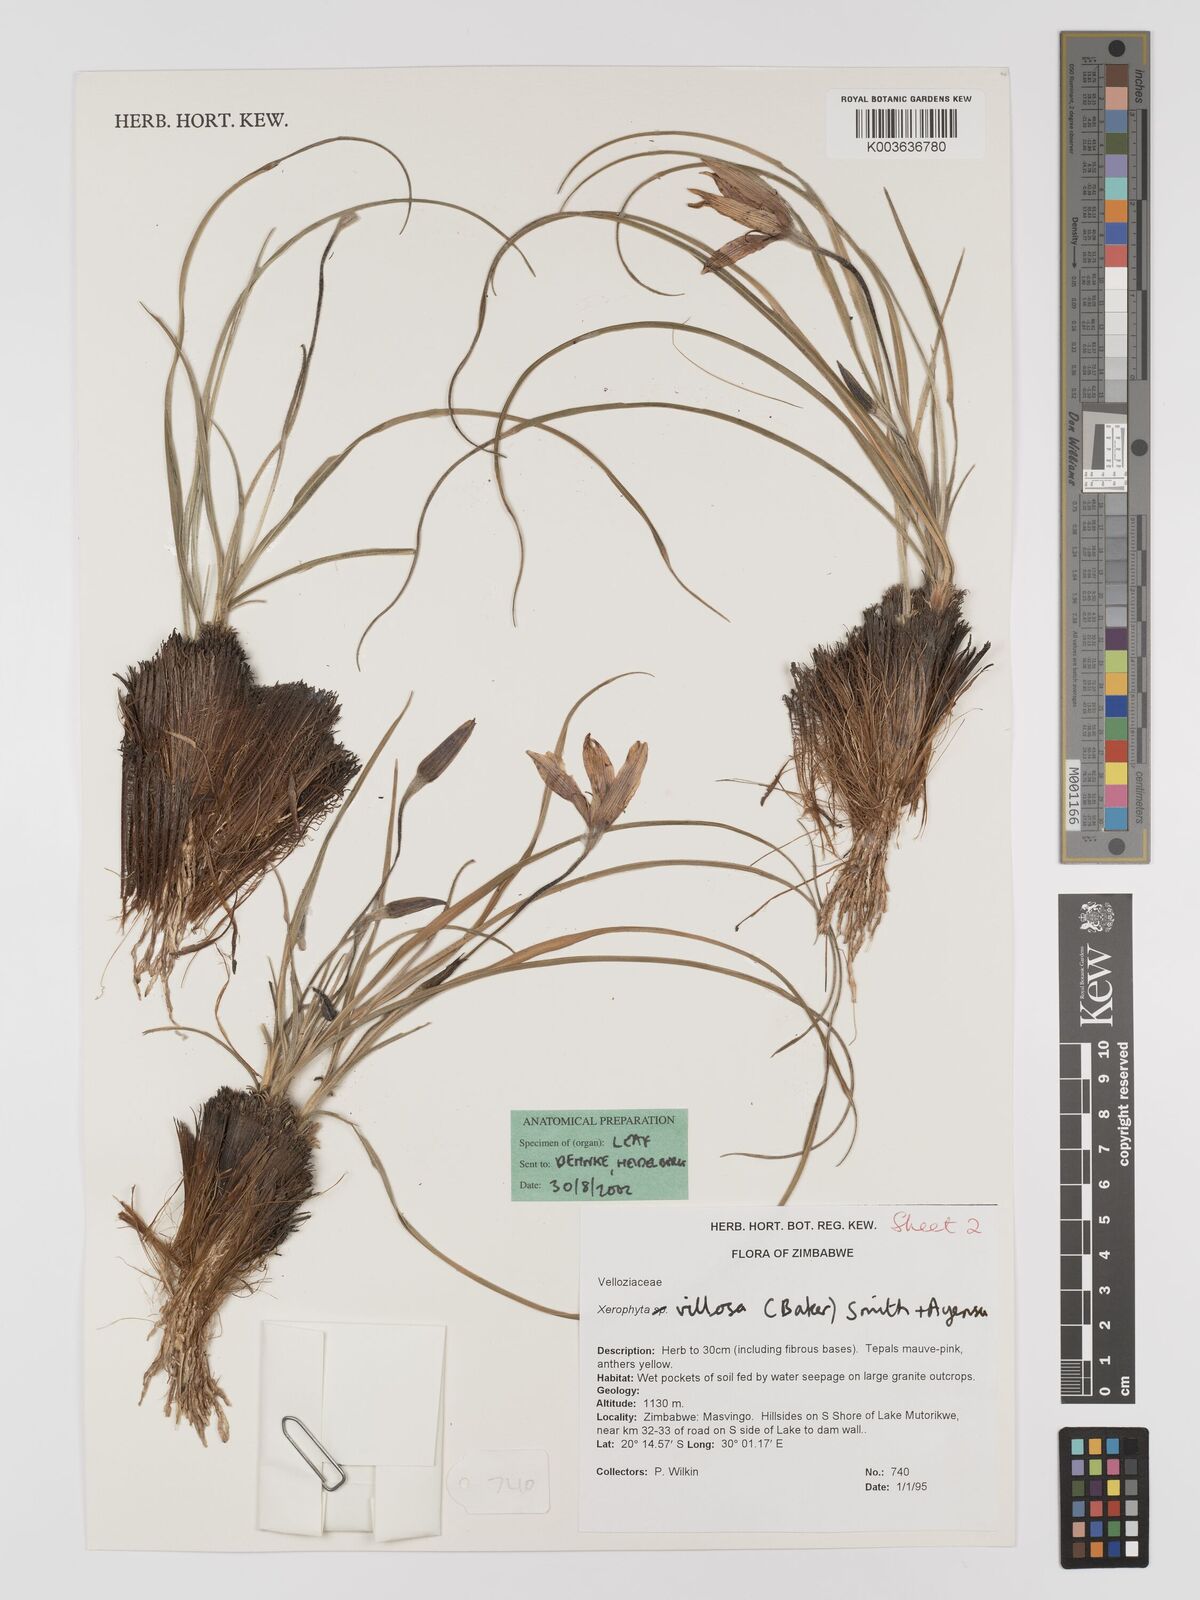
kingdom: Plantae
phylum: Tracheophyta
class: Liliopsida
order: Pandanales
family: Velloziaceae
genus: Xerophyta
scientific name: Xerophyta villosa
